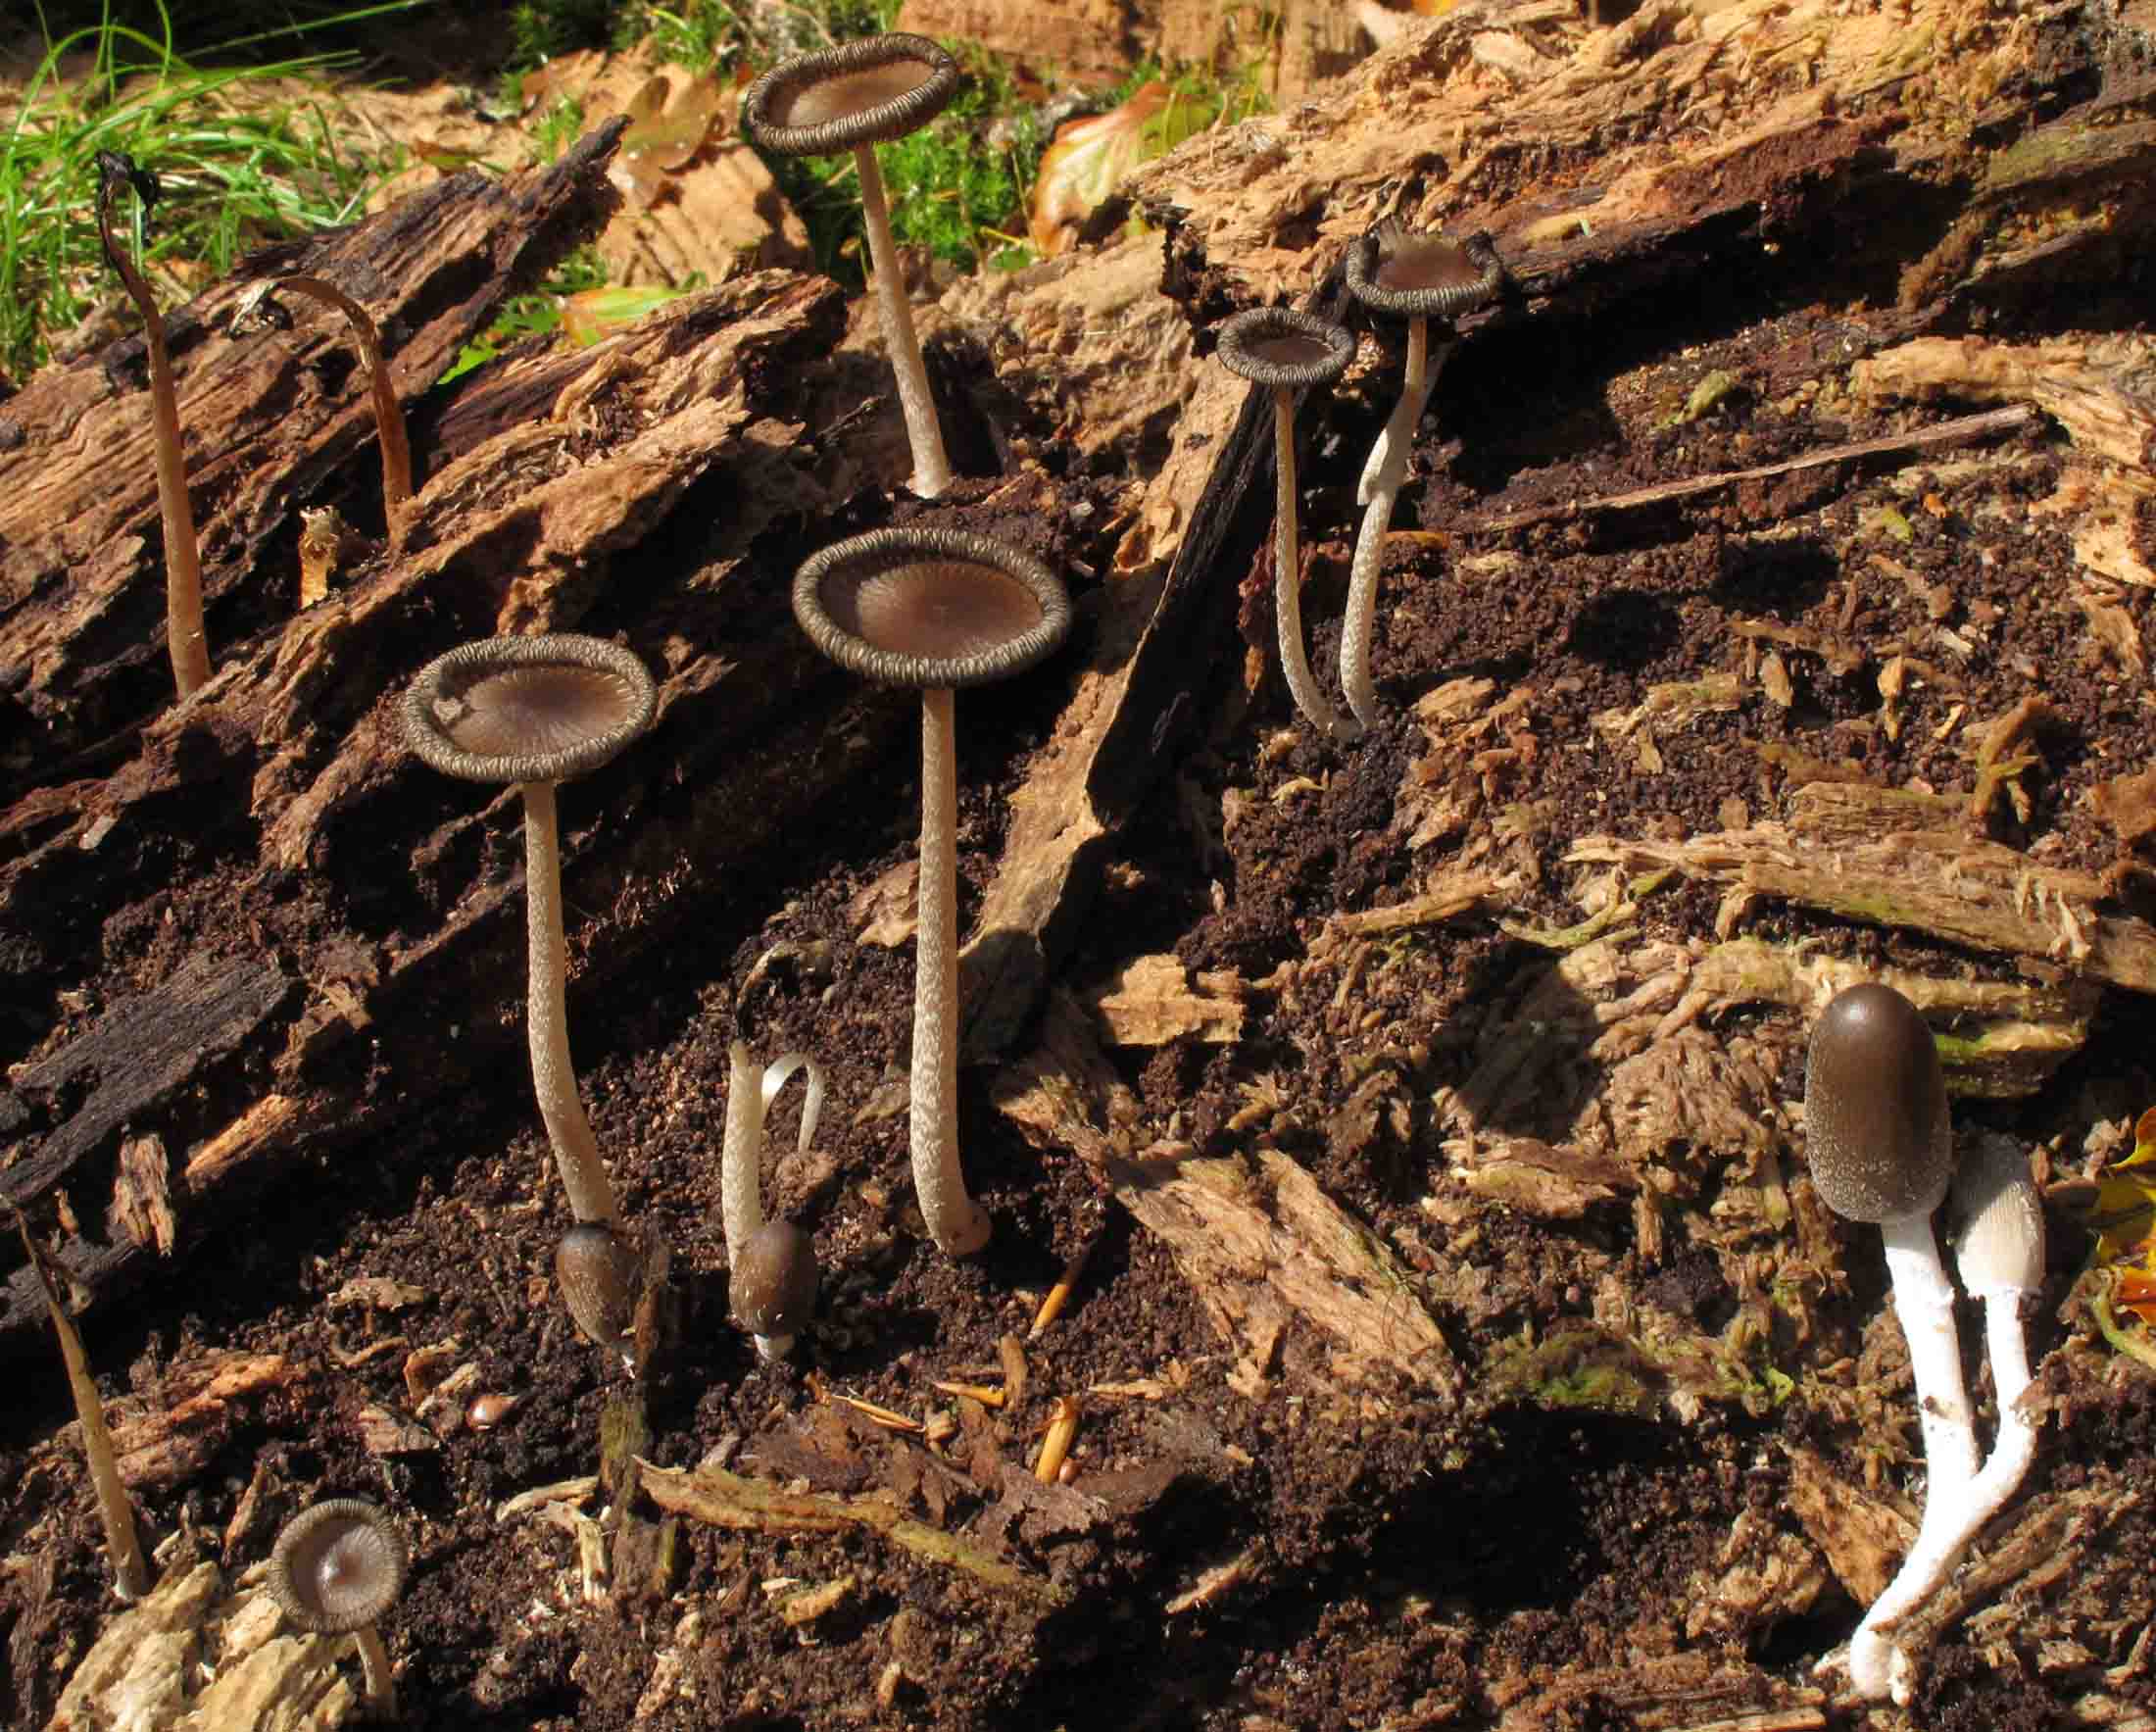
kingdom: Fungi
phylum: Basidiomycota
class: Agaricomycetes
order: Agaricales
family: Psathyrellaceae
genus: Coprinopsis
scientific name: Coprinopsis echinospora
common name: fuglemøg-blækhat
